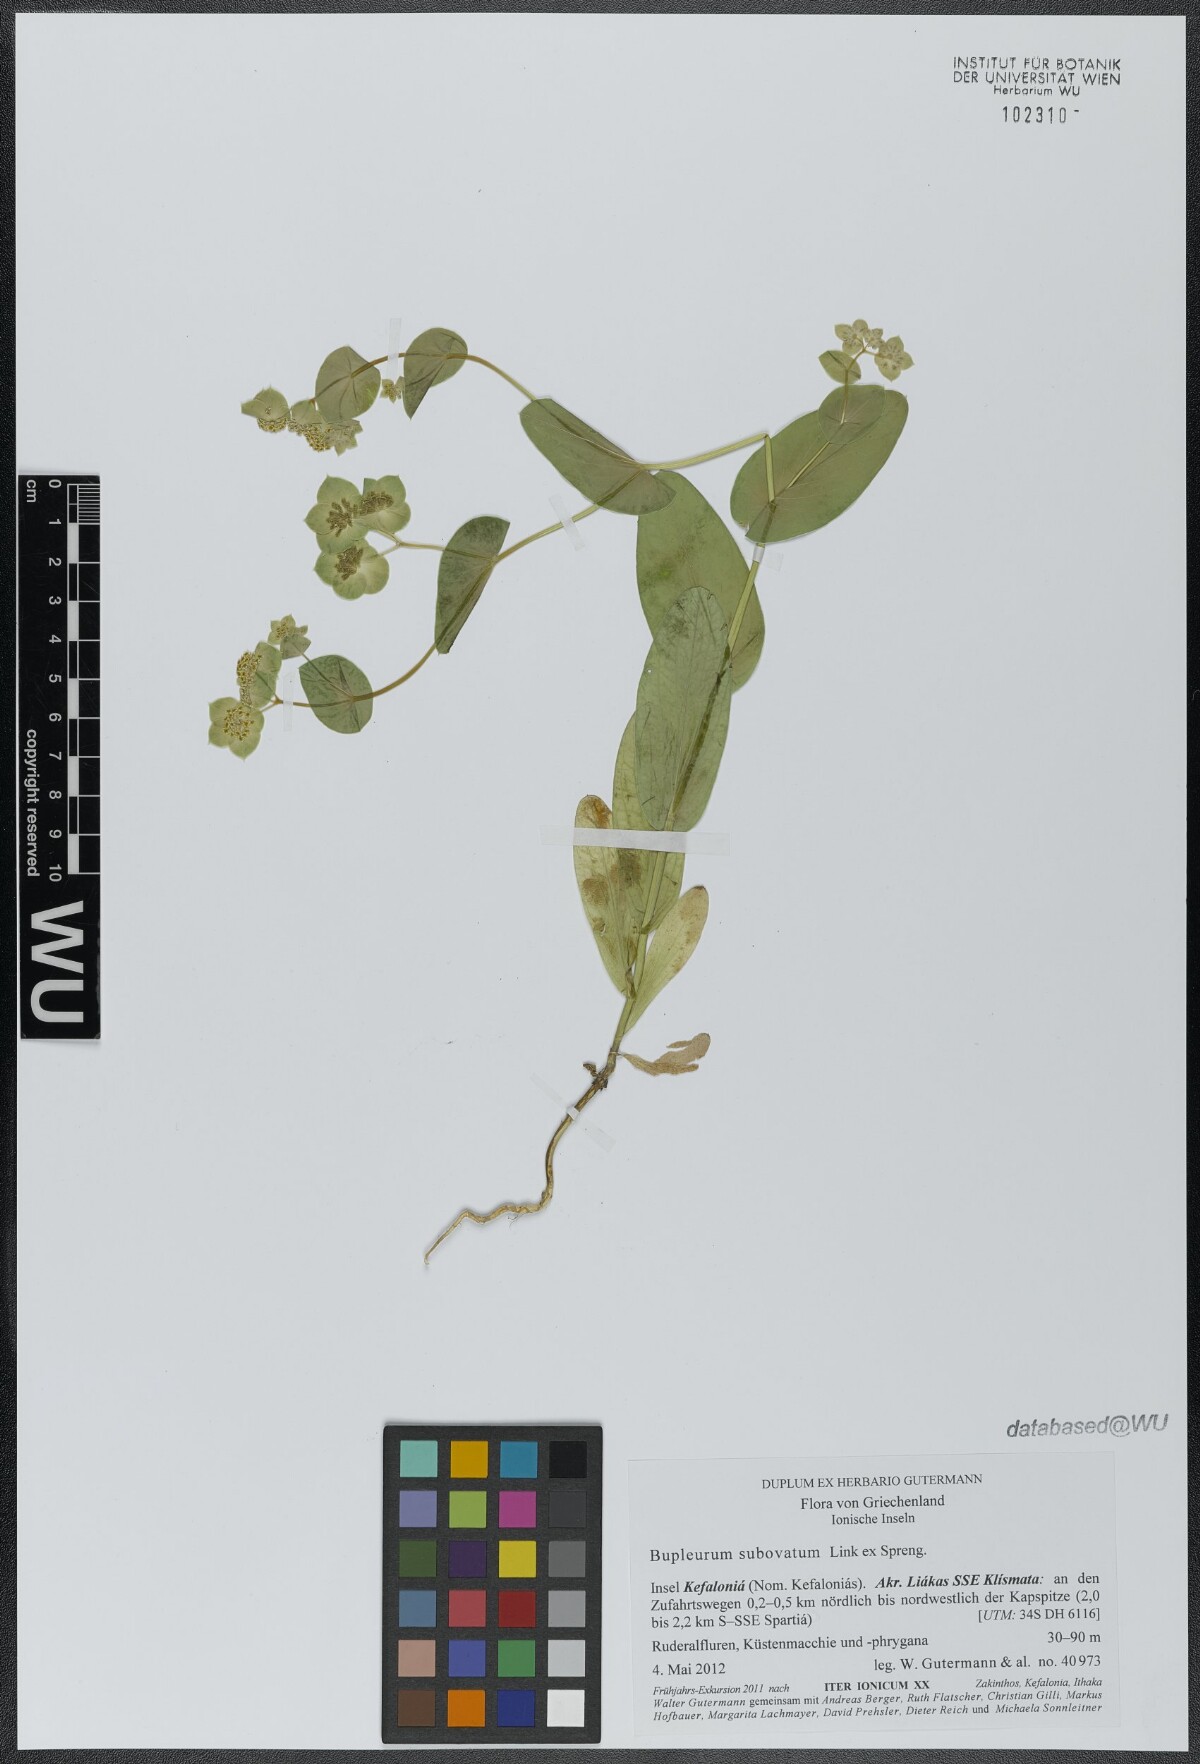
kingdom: Plantae
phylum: Tracheophyta
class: Magnoliopsida
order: Apiales
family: Apiaceae
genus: Bupleurum
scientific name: Bupleurum subovatum
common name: False thorow-wax
